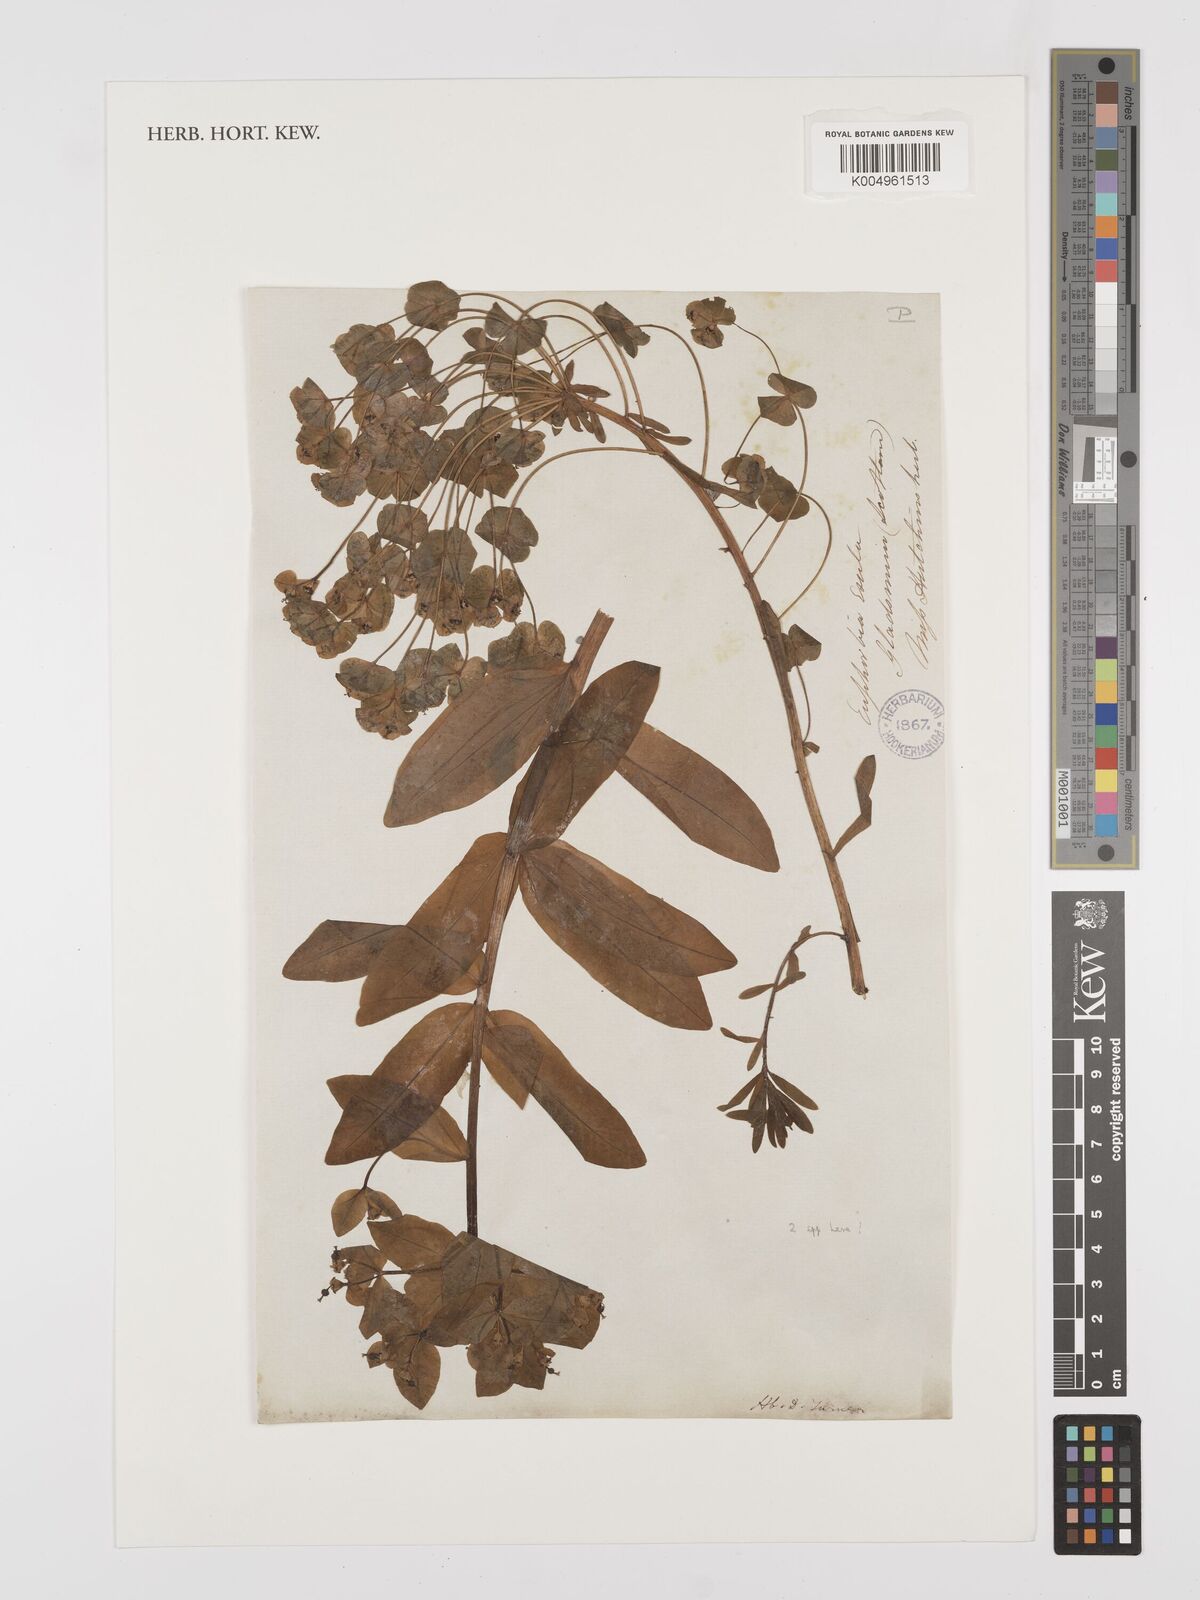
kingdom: Plantae
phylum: Tracheophyta
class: Magnoliopsida
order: Malpighiales
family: Euphorbiaceae
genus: Euphorbia
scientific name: Euphorbia esula
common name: Leafy spurge
